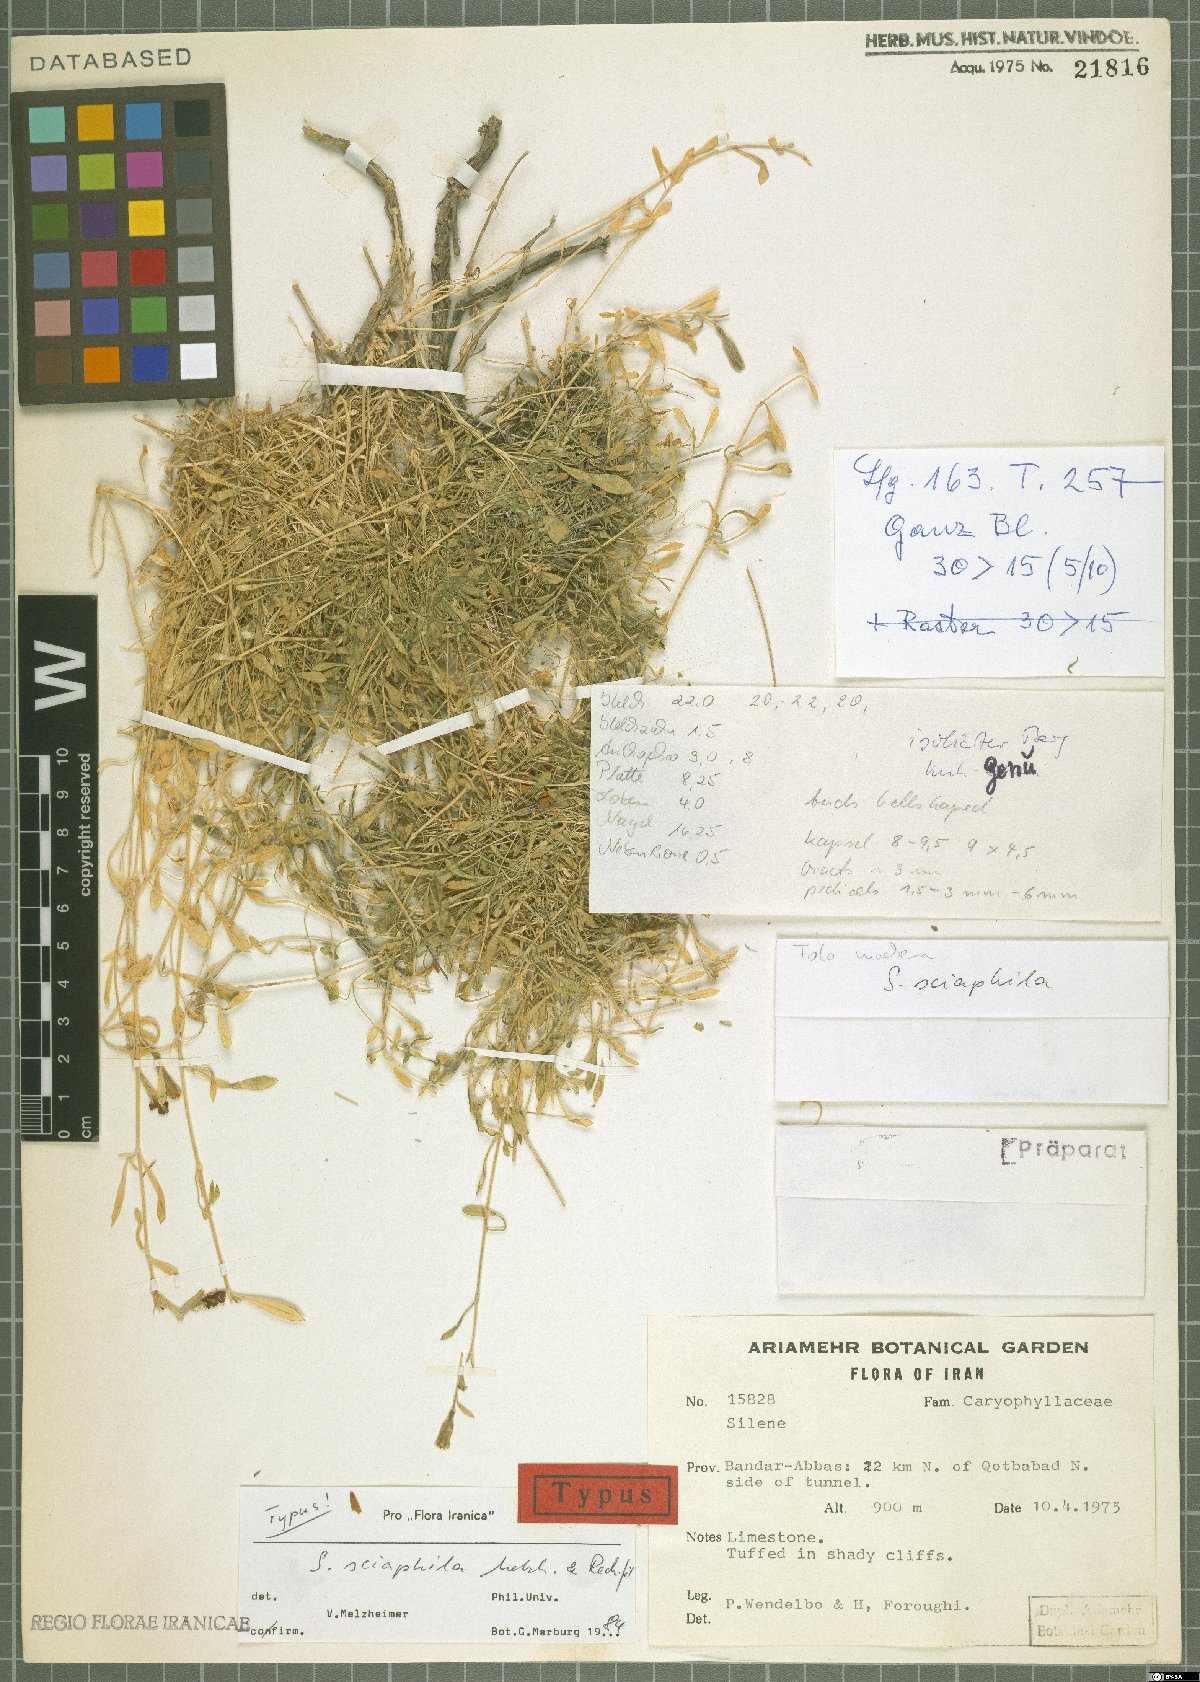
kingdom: Plantae
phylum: Tracheophyta
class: Magnoliopsida
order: Caryophyllales
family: Caryophyllaceae
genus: Silene
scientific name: Silene sciaphila
